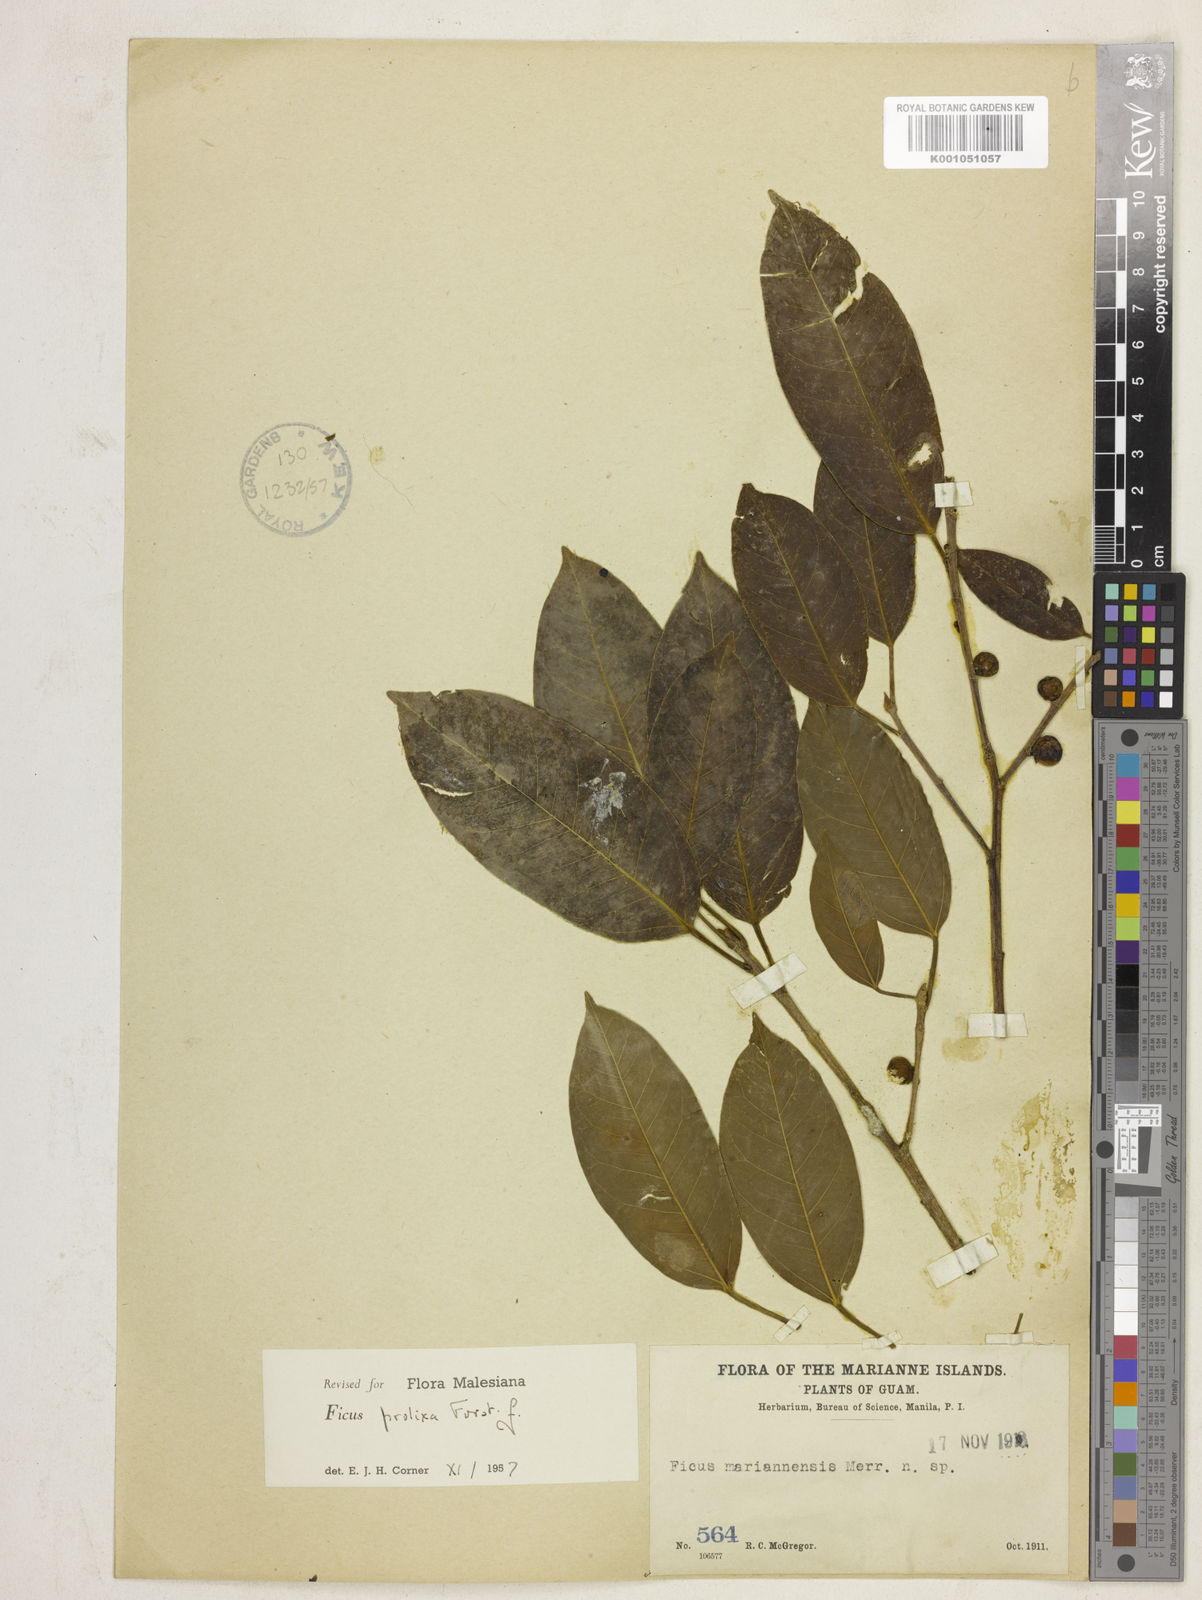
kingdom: Plantae
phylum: Tracheophyta
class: Magnoliopsida
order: Rosales
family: Moraceae
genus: Ficus
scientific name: Ficus prolixa
